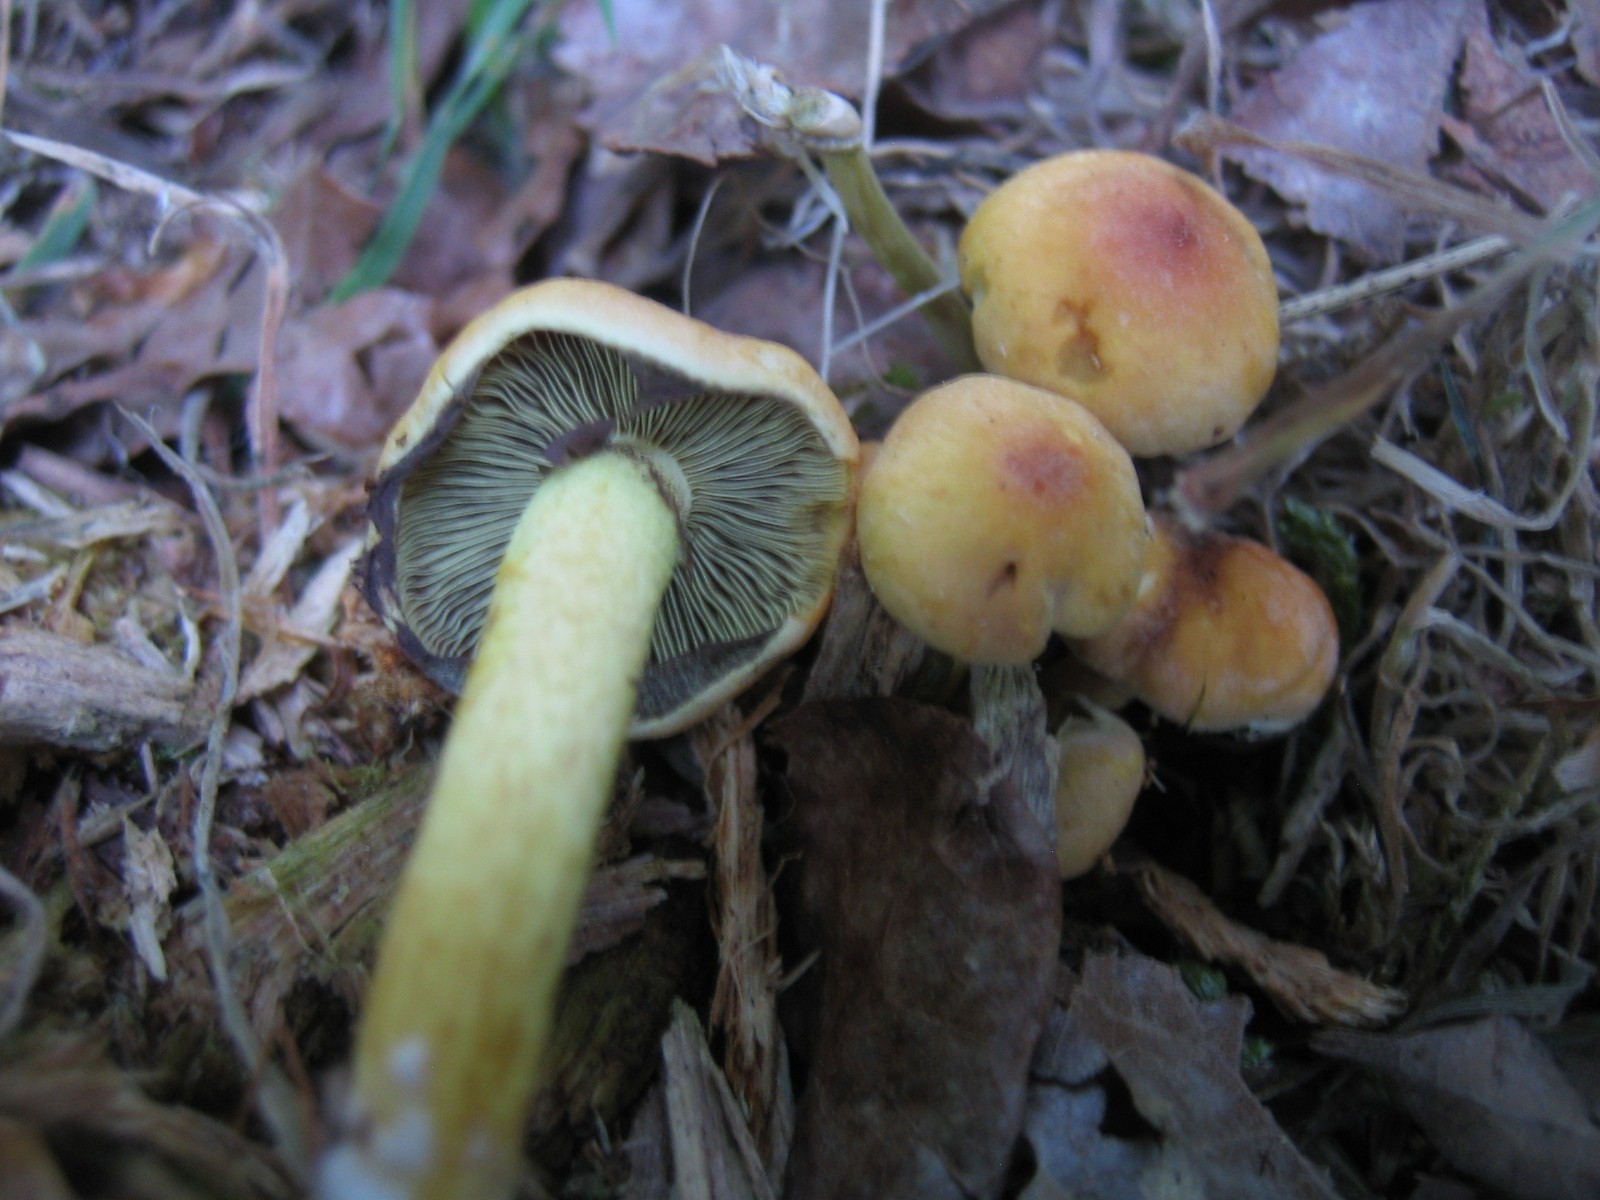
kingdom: Fungi
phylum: Basidiomycota
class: Agaricomycetes
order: Agaricales
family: Strophariaceae
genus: Hypholoma
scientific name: Hypholoma fasciculare
